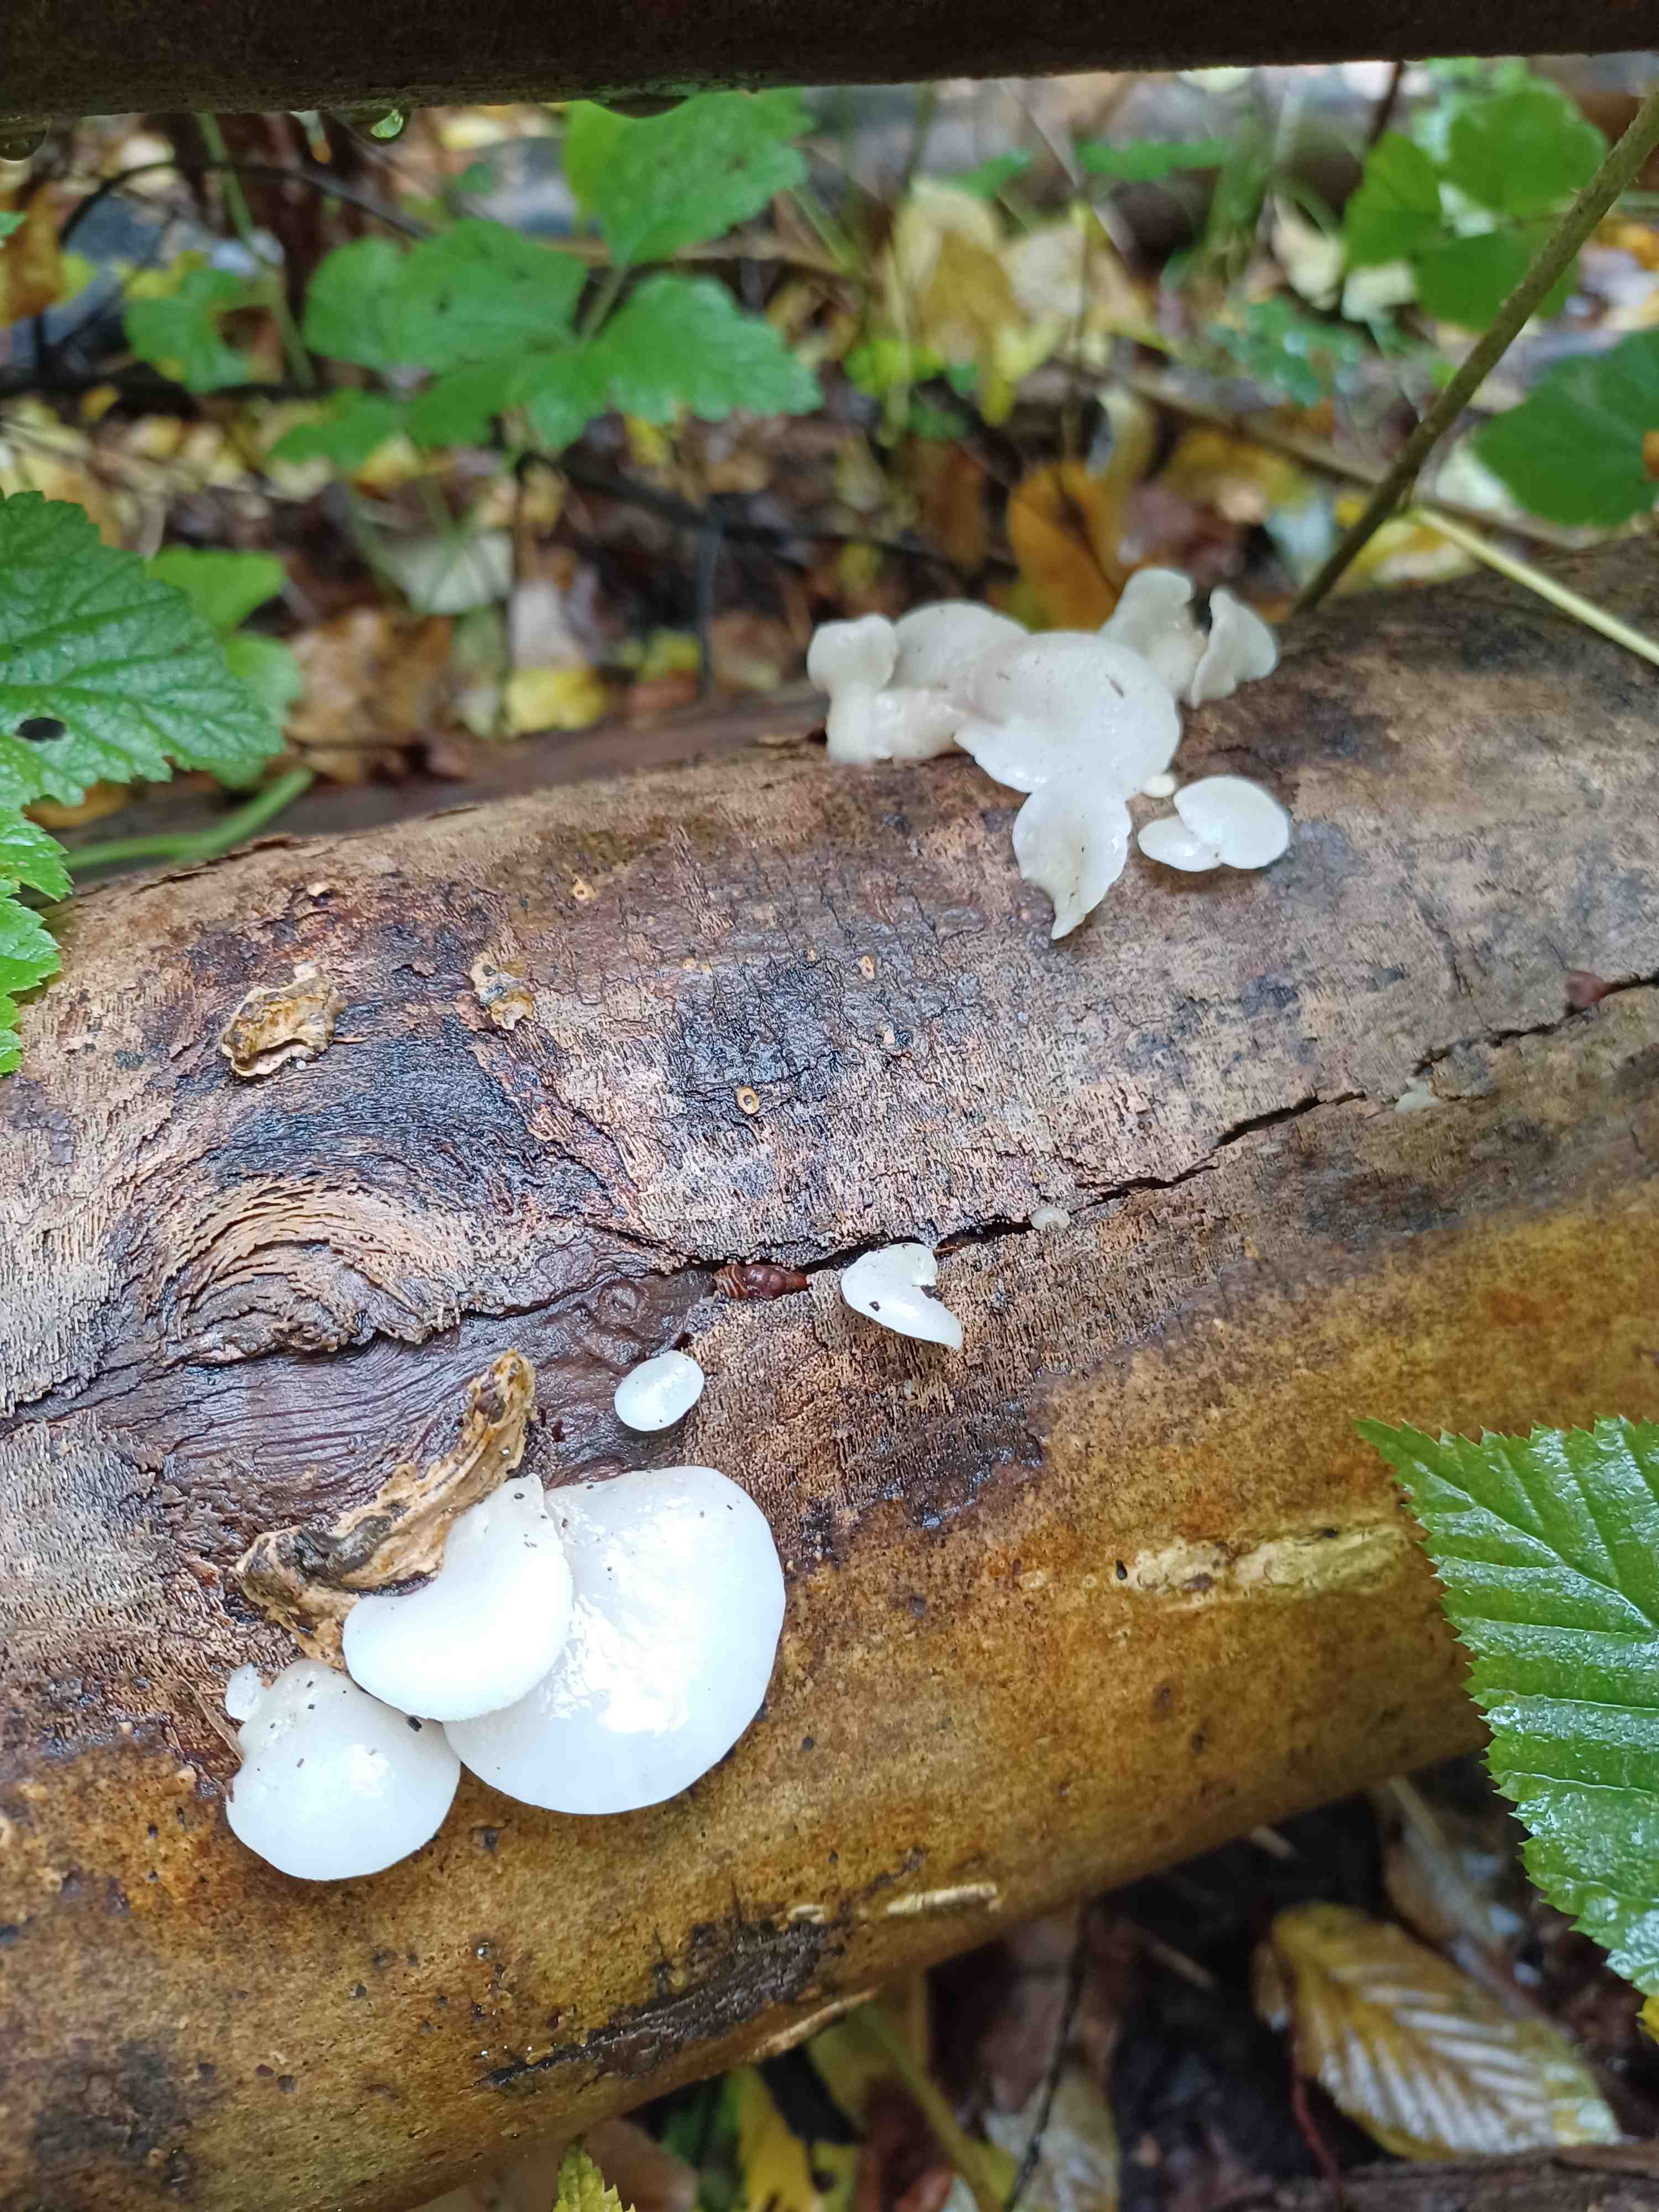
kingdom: Fungi
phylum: Basidiomycota
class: Agaricomycetes
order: Agaricales
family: Crepidotaceae
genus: Crepidotus
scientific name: Crepidotus mollis
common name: blød muslingesvamp
